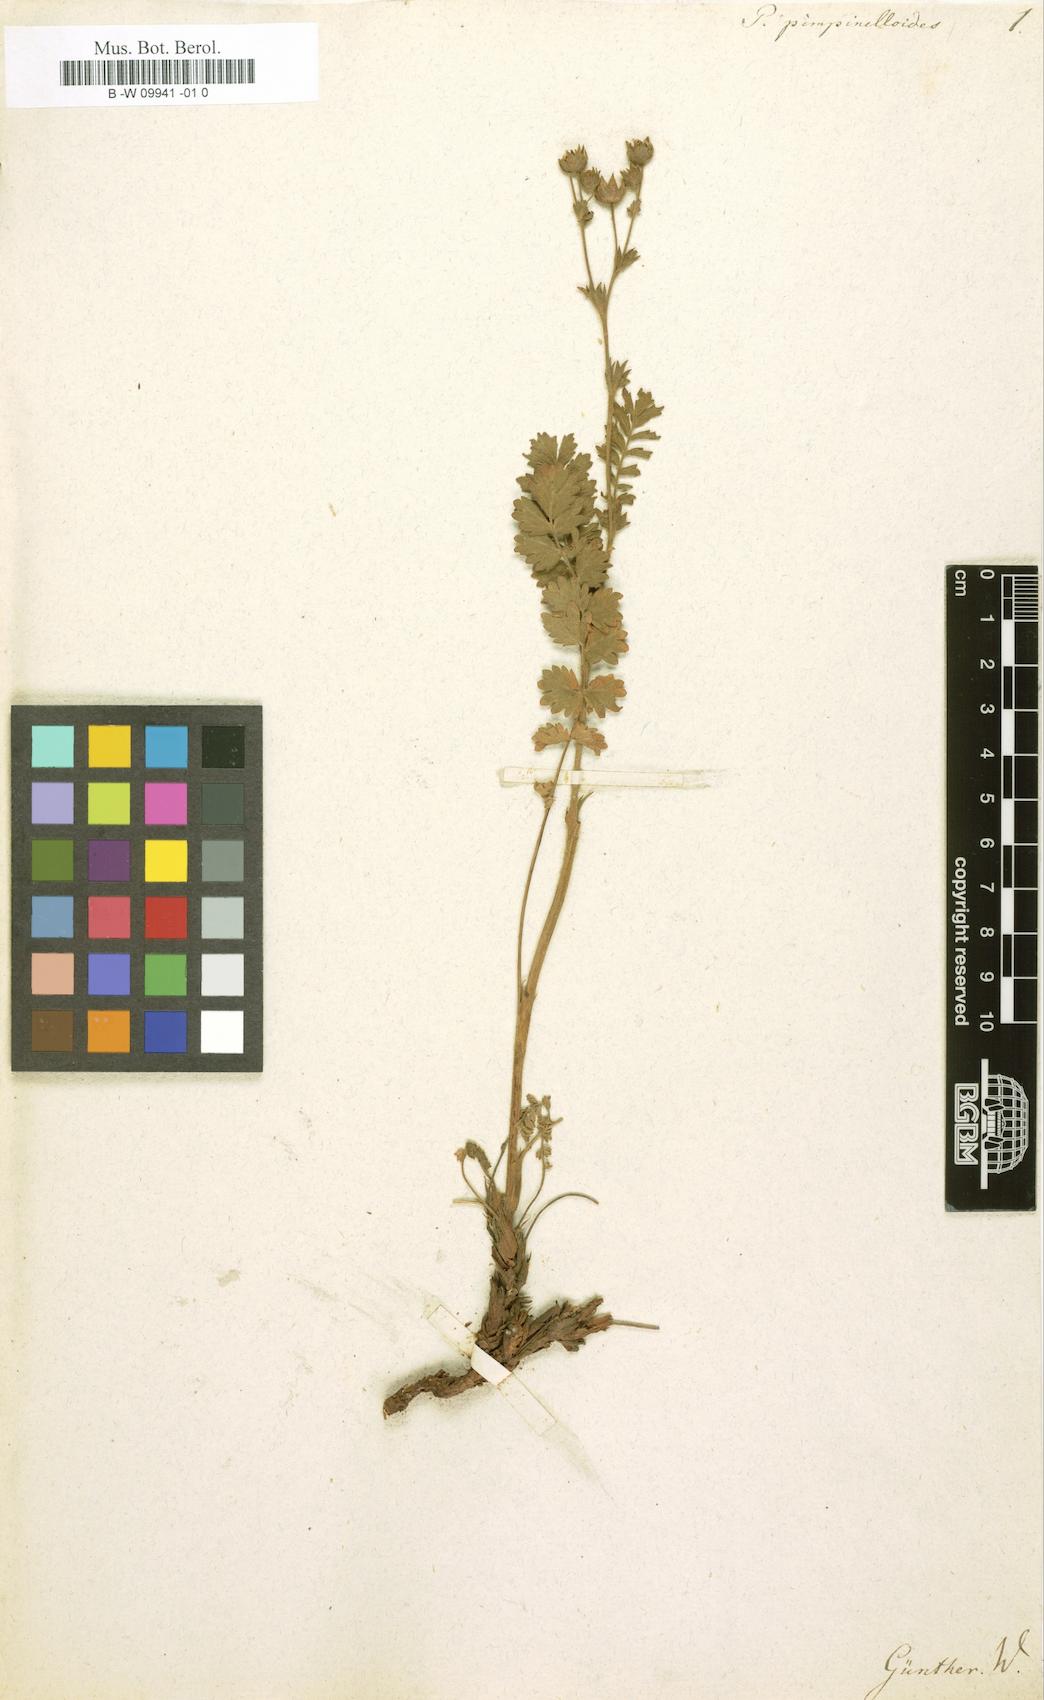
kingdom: Plantae
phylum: Tracheophyta
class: Magnoliopsida
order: Rosales
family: Rosaceae
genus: Potentilla
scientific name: Potentilla pimpinelloides
